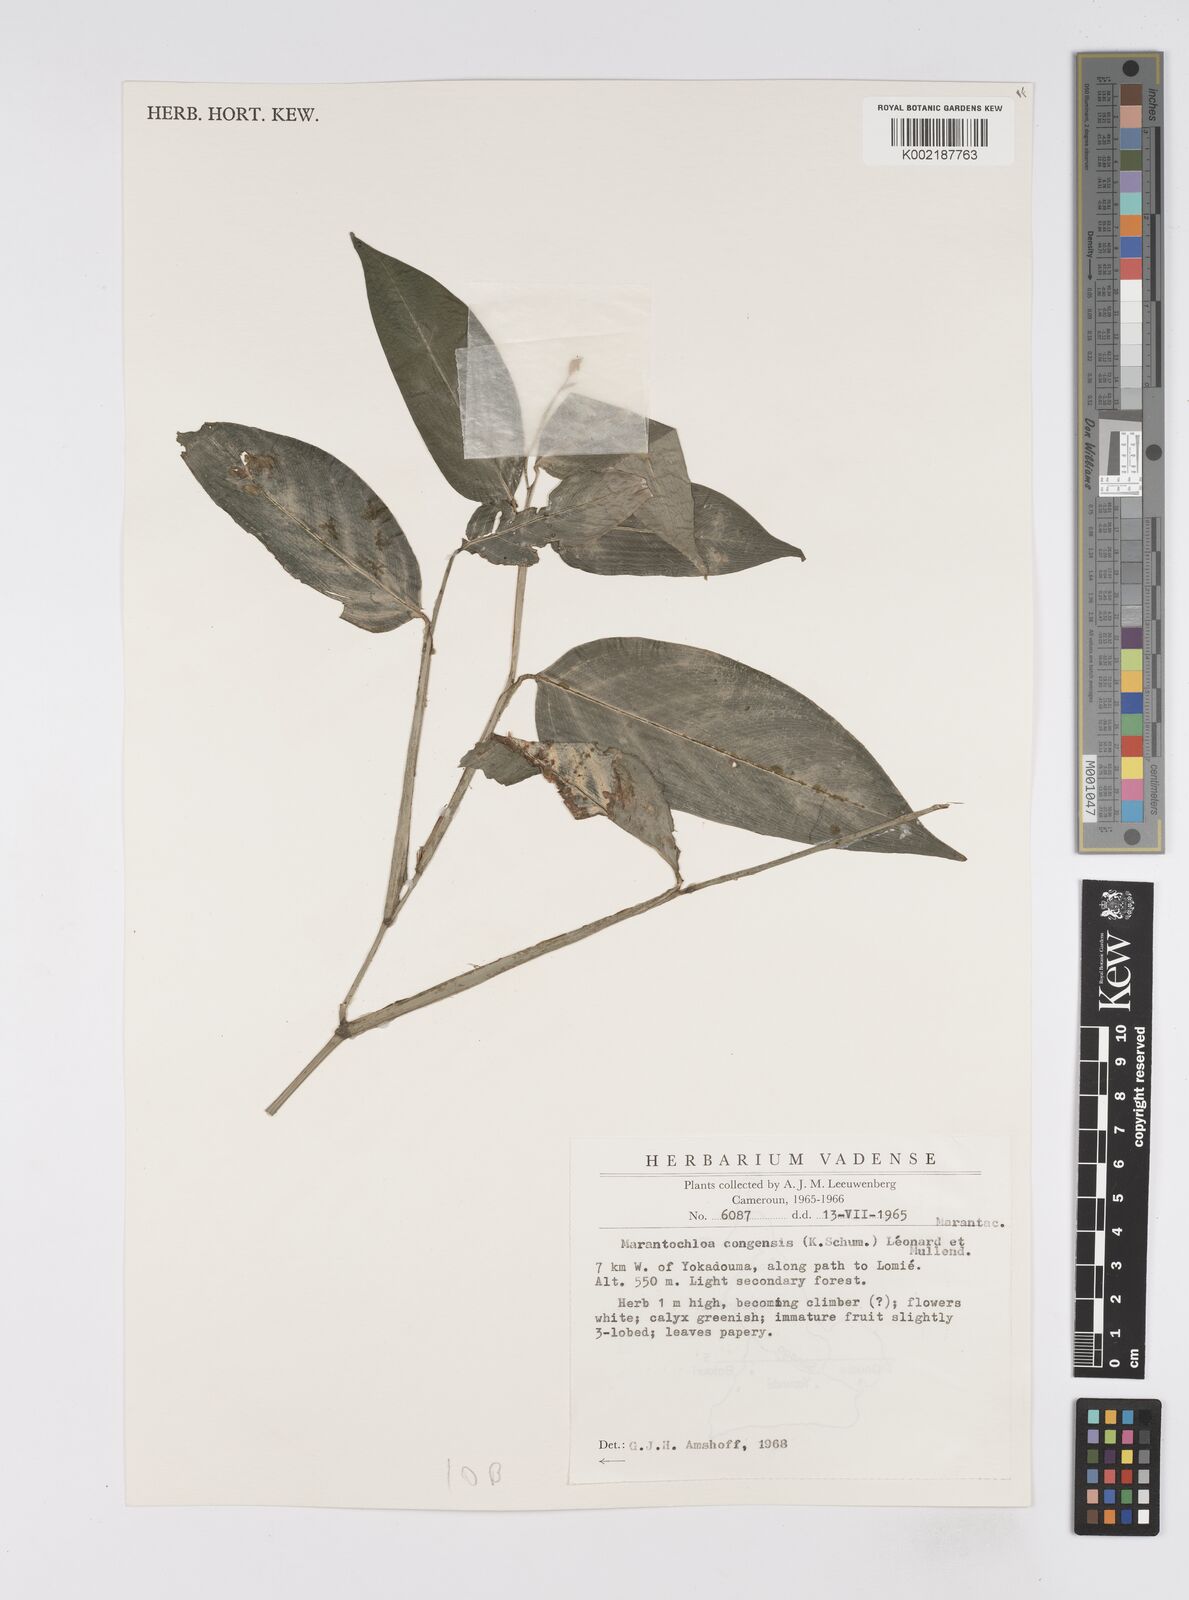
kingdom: Plantae
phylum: Tracheophyta
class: Liliopsida
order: Zingiberales
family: Marantaceae
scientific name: Marantaceae
